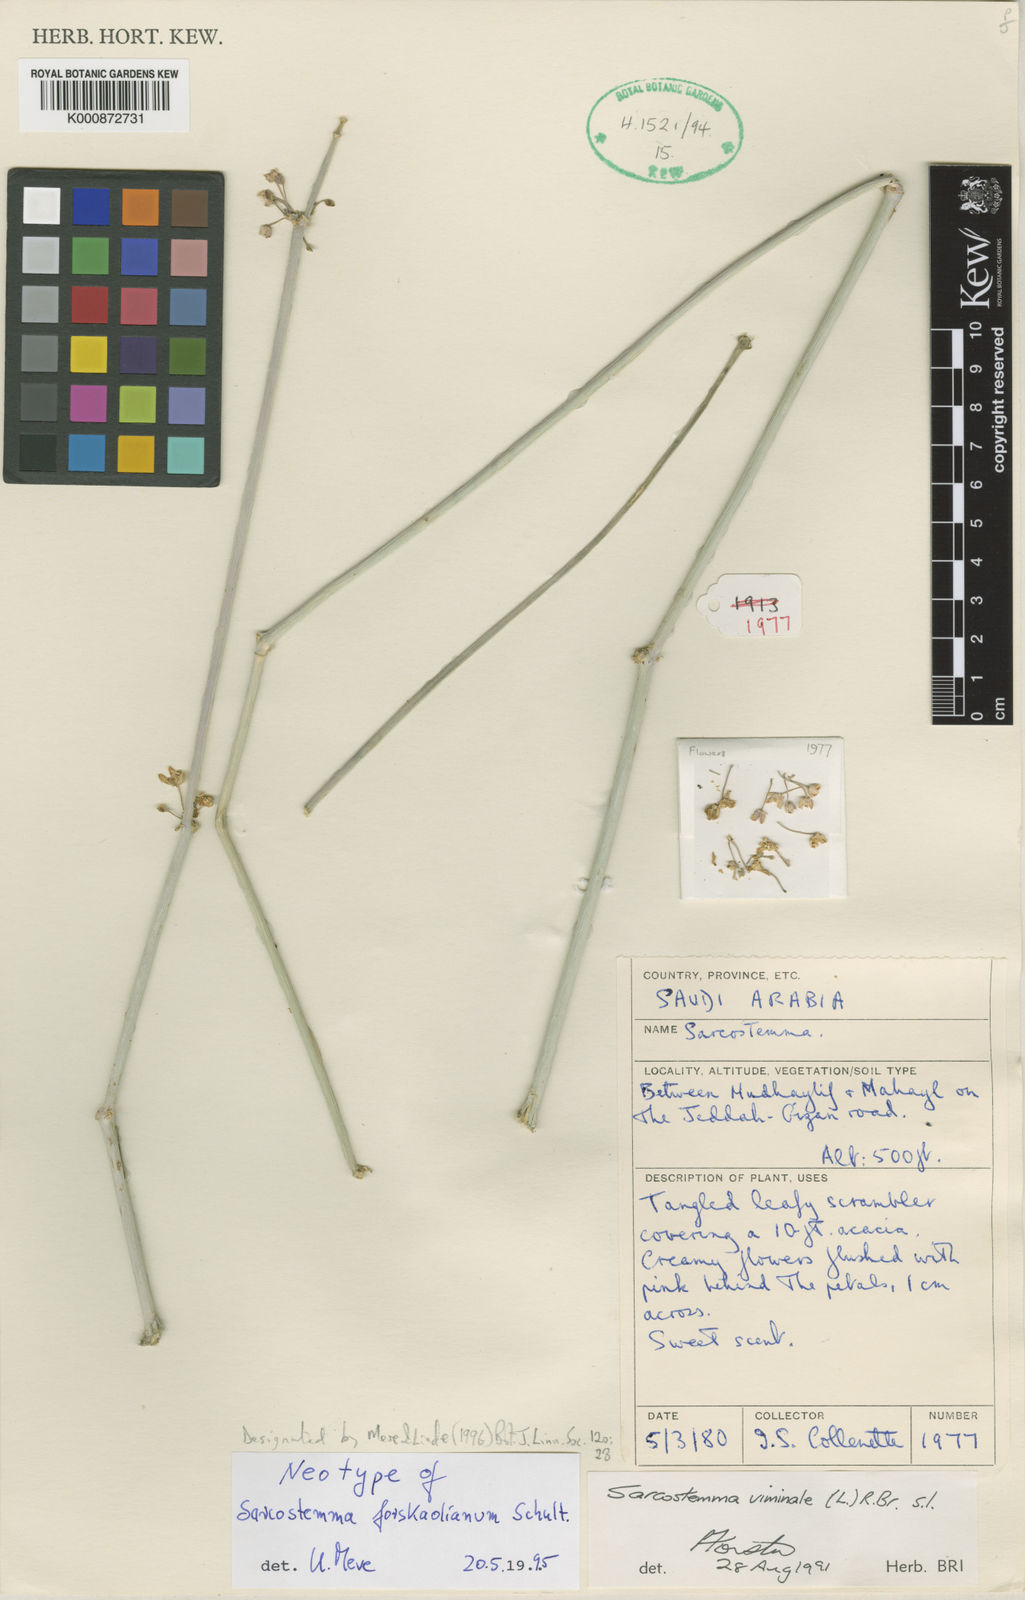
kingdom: Plantae
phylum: Tracheophyta
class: Magnoliopsida
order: Gentianales
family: Apocynaceae
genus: Cynanchum
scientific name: Cynanchum forskaolianum
